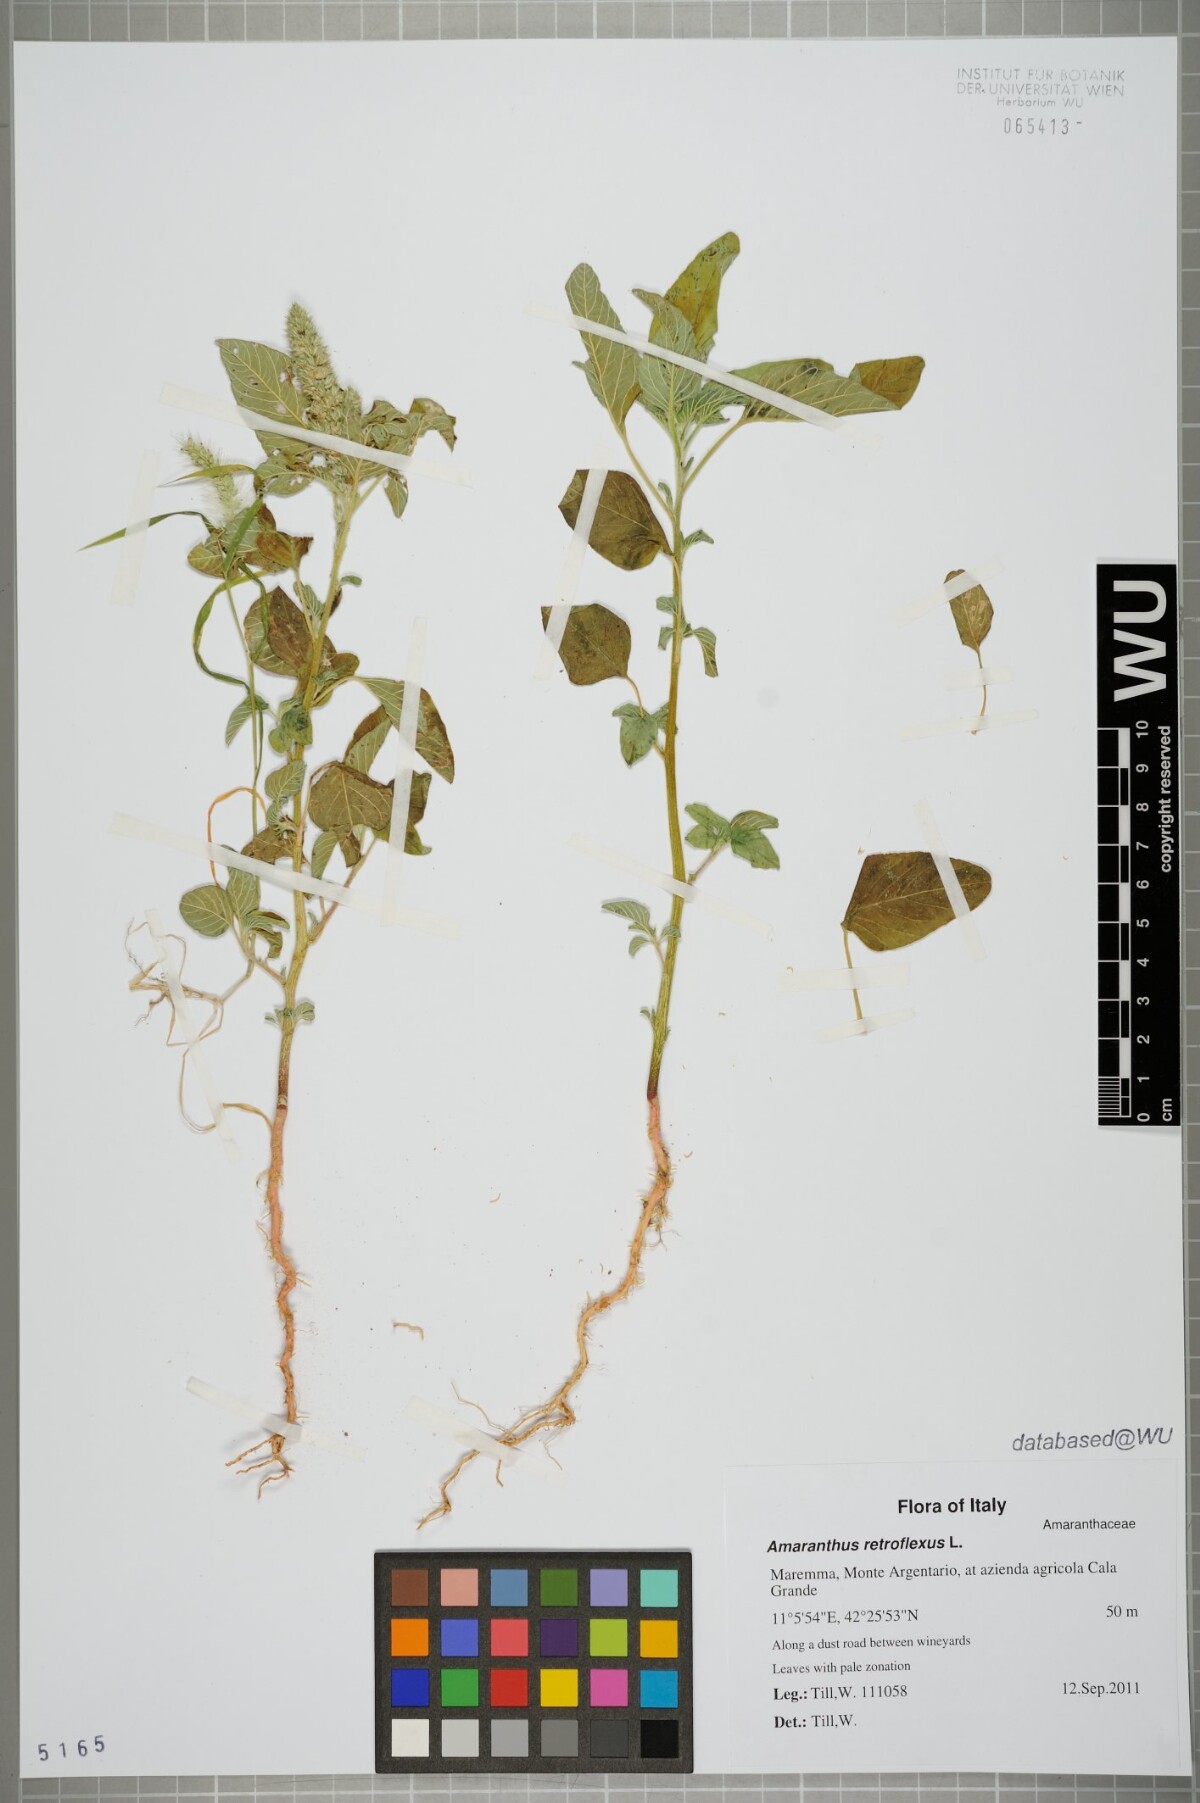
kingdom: Plantae
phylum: Tracheophyta
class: Magnoliopsida
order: Caryophyllales
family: Amaranthaceae
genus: Amaranthus
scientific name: Amaranthus retroflexus
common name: Redroot amaranth
